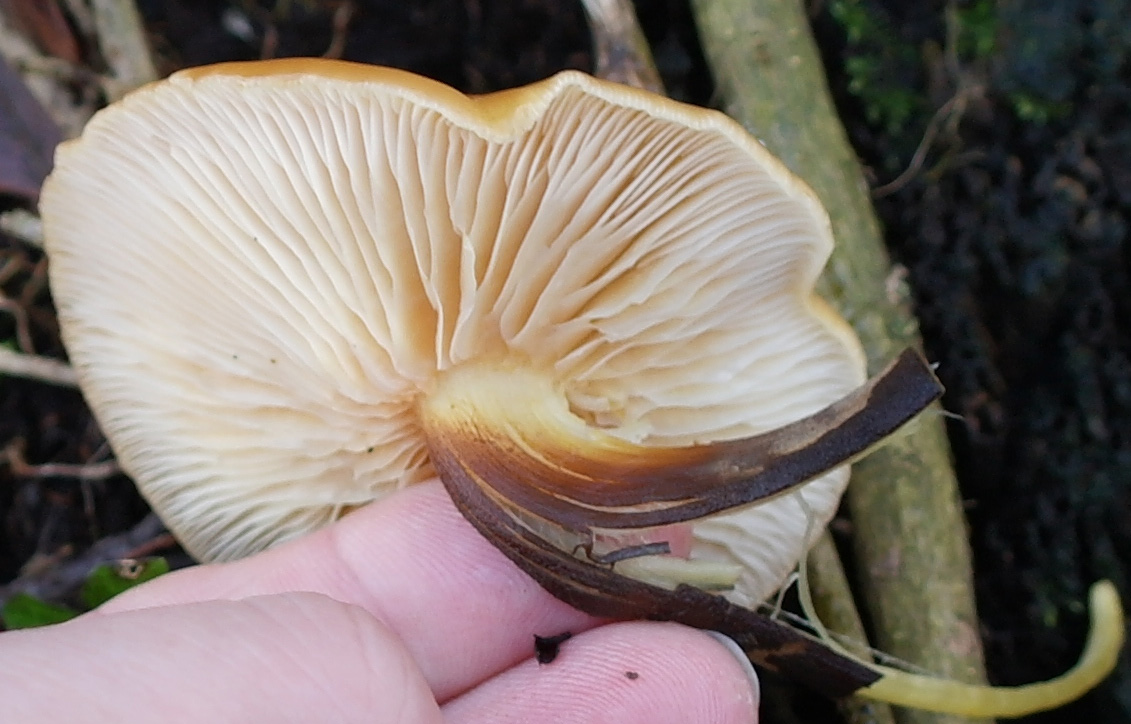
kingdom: Fungi
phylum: Basidiomycota
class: Agaricomycetes
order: Agaricales
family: Physalacriaceae
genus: Flammulina
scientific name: Flammulina velutipes
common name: gul fløjlsfod
